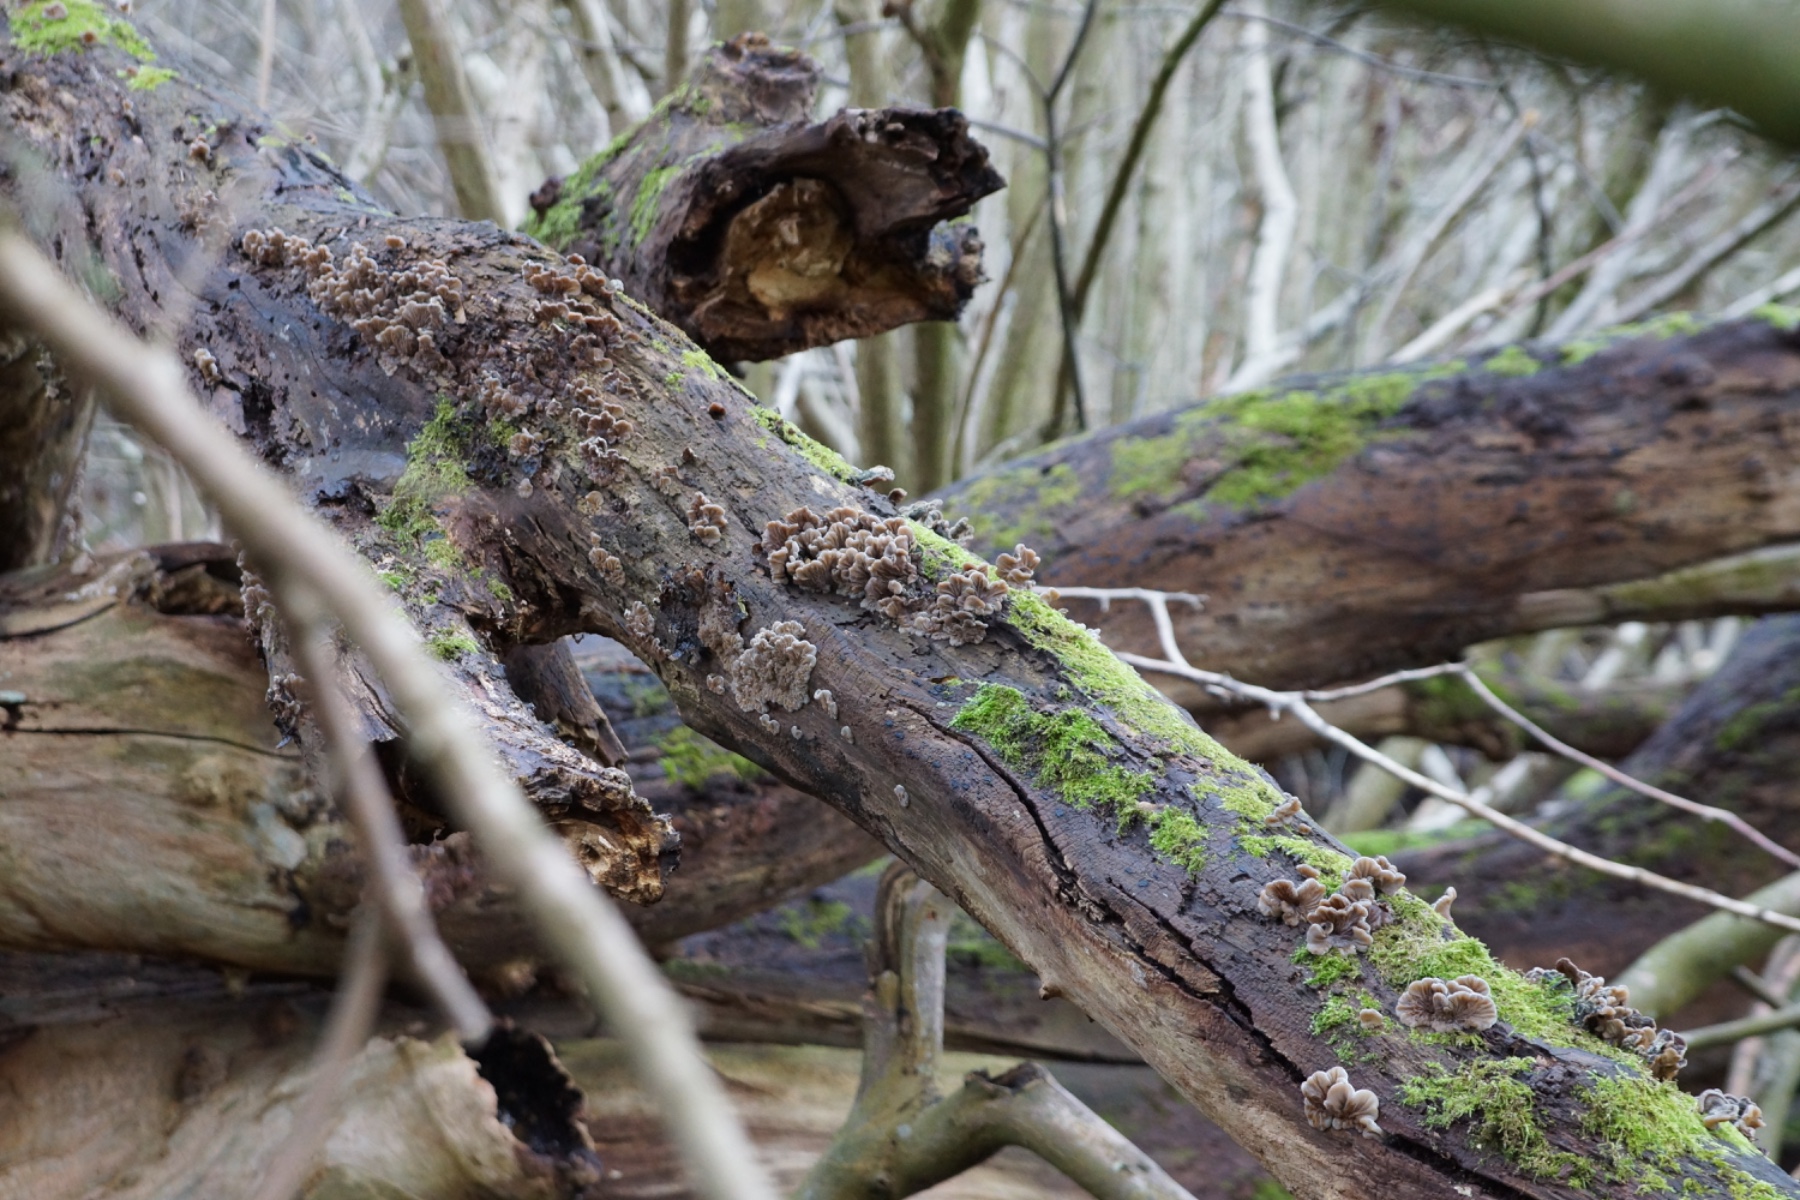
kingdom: Fungi
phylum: Basidiomycota
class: Agaricomycetes
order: Auriculariales
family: Auriculariaceae
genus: Auricularia
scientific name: Auricularia mesenterica
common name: håret judasøre
